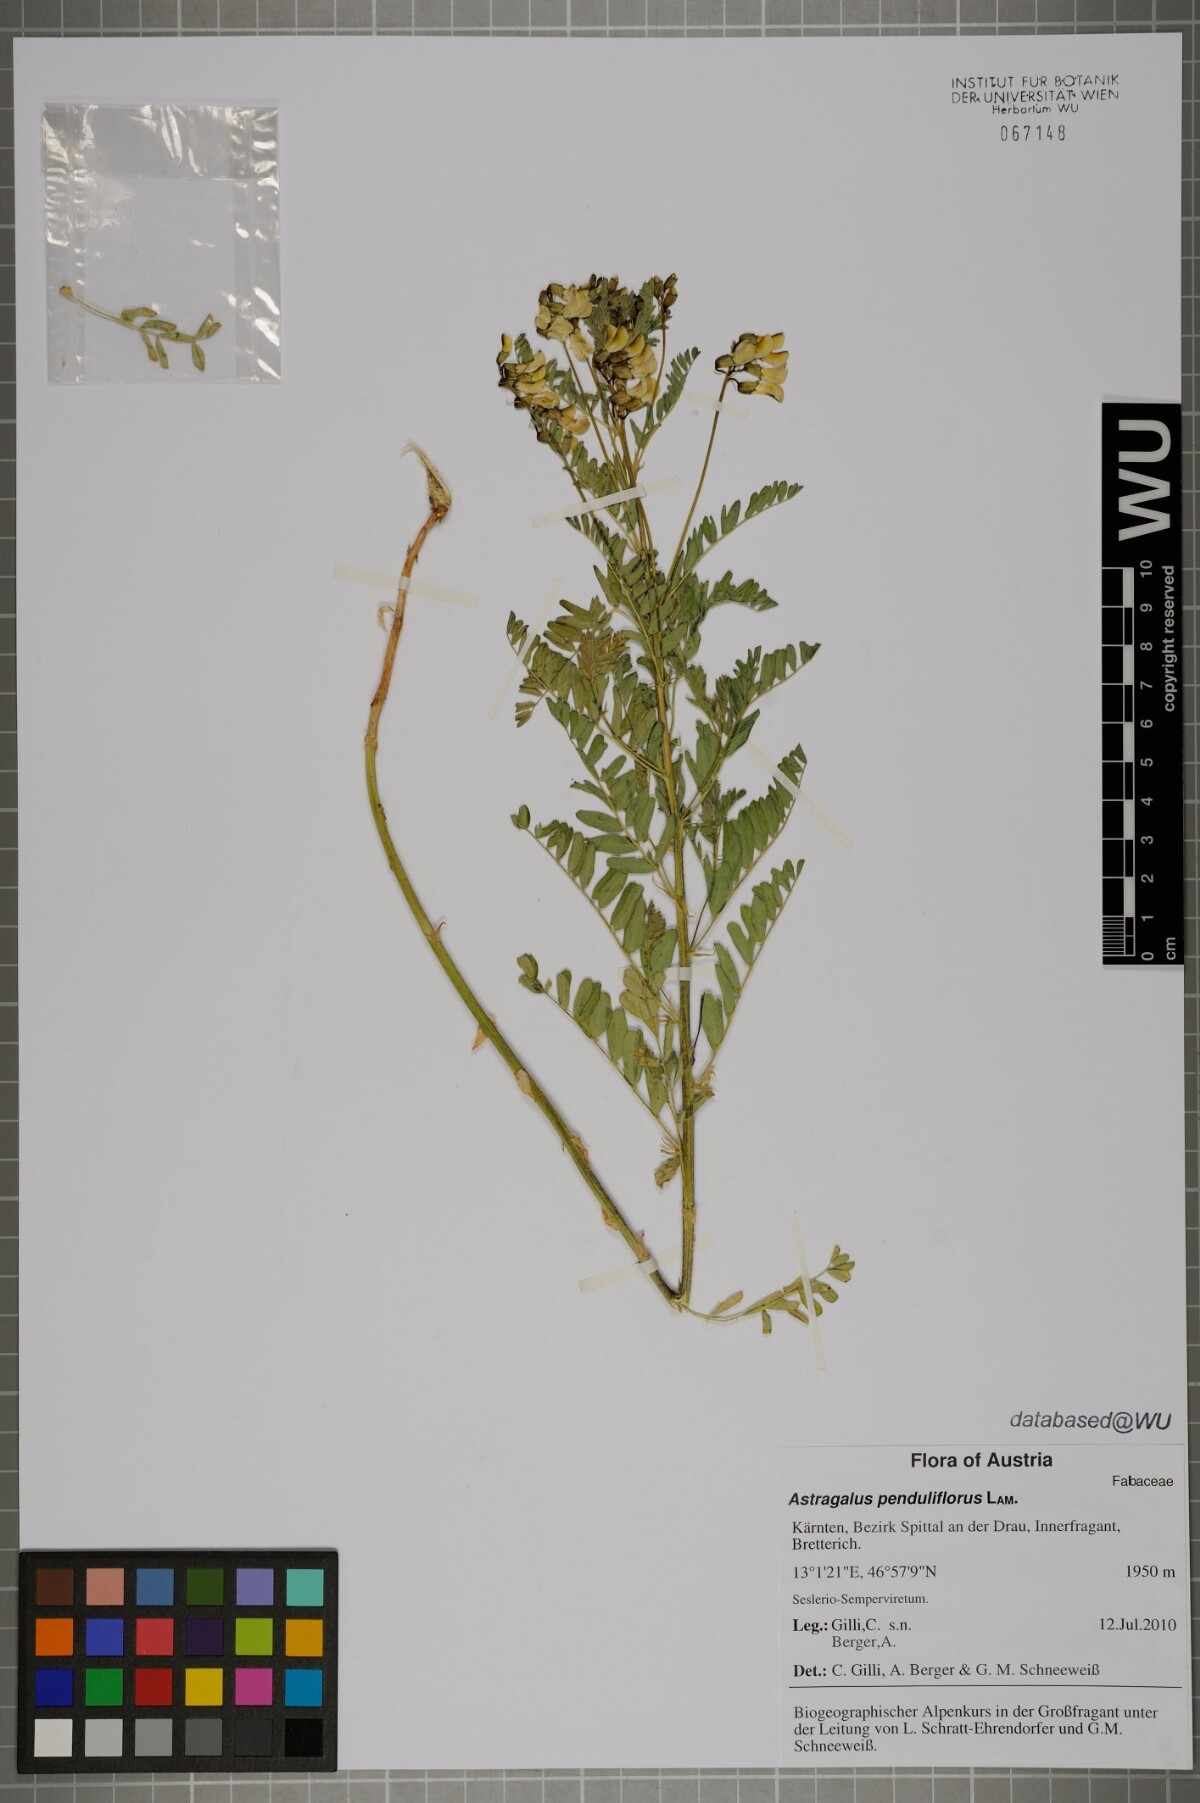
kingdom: Plantae
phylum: Tracheophyta
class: Magnoliopsida
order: Fabales
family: Fabaceae
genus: Astragalus
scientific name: Astragalus penduliflorus
